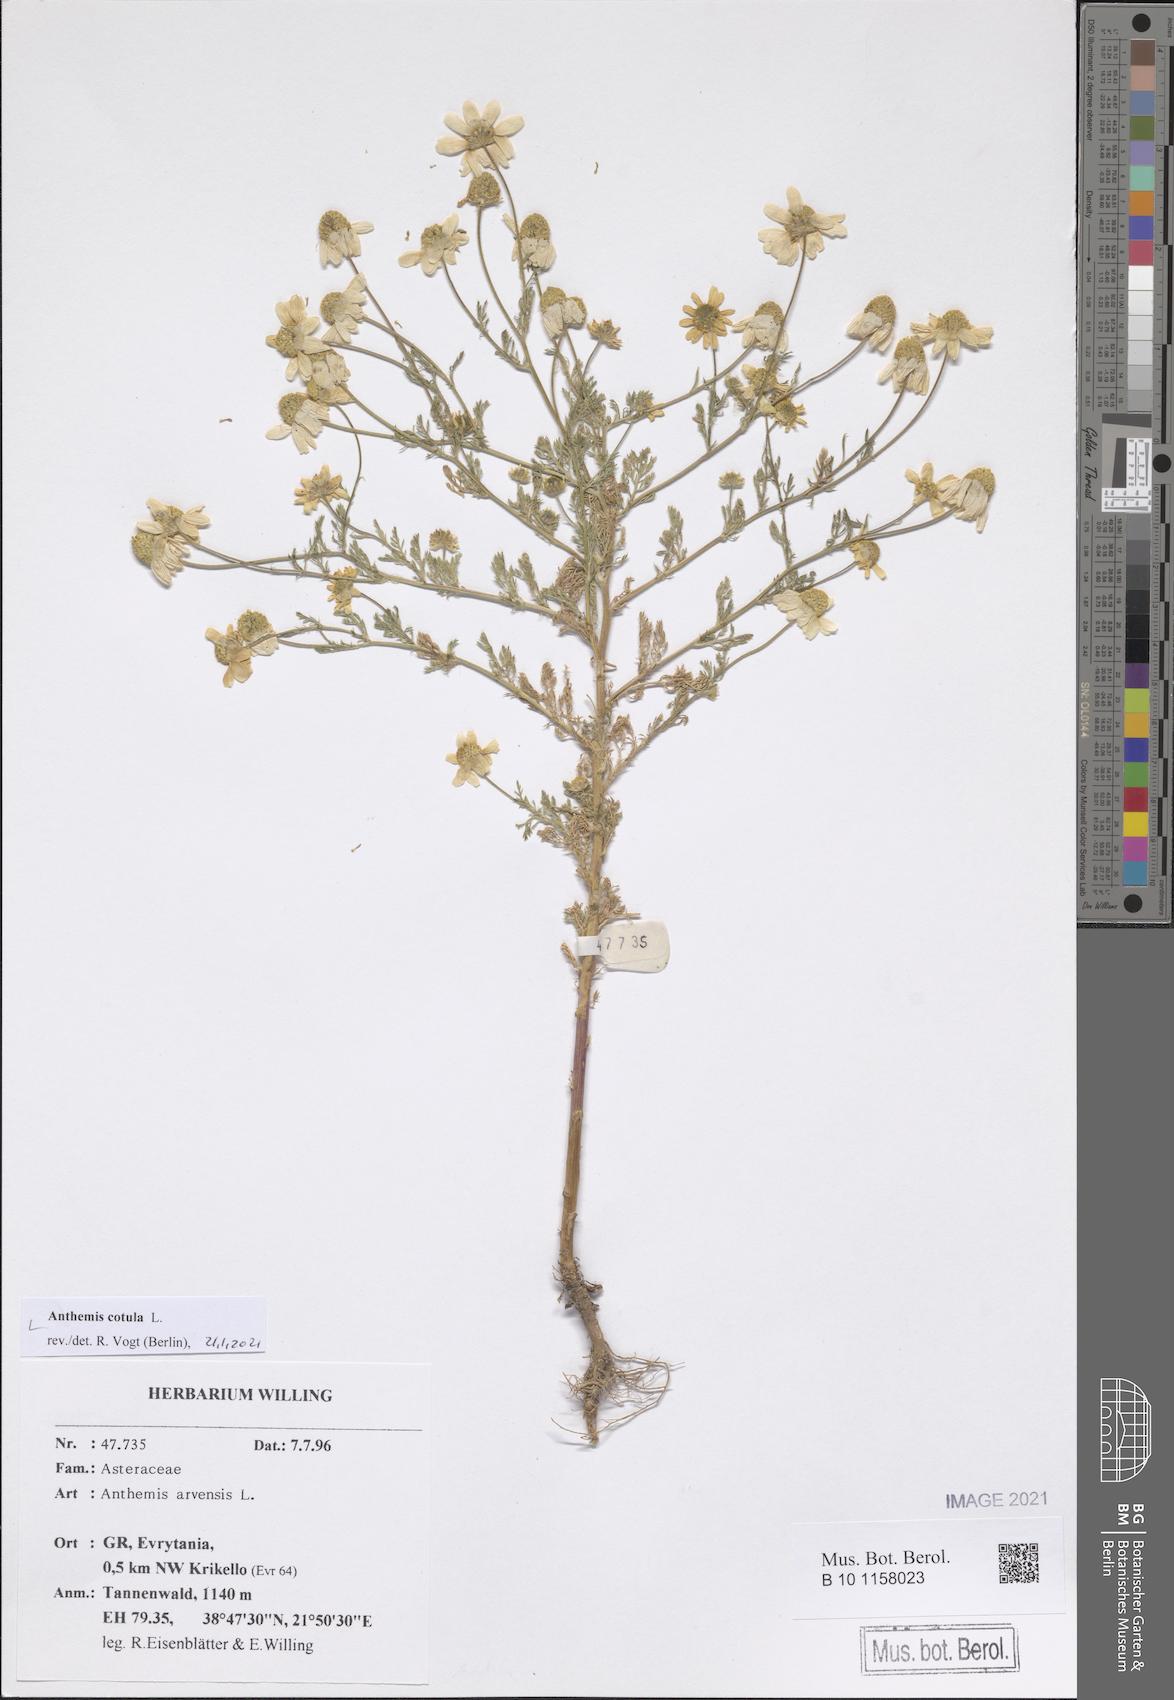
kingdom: Plantae
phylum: Tracheophyta
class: Magnoliopsida
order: Asterales
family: Asteraceae
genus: Anthemis
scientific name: Anthemis cotula
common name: Stinking chamomile
